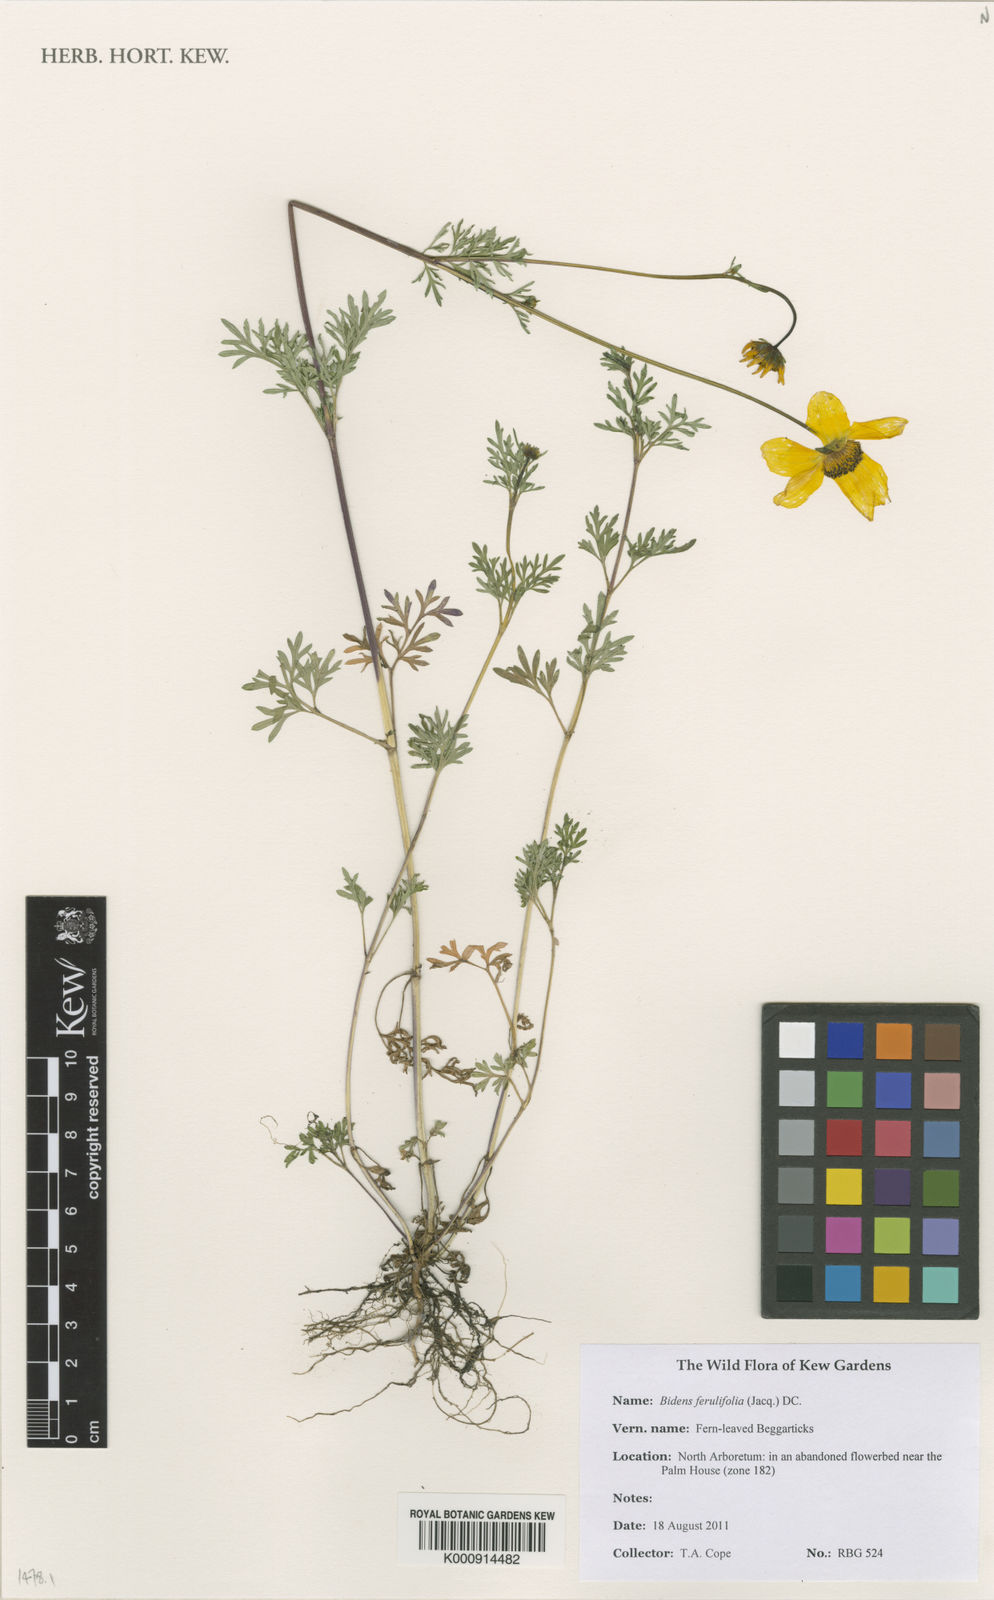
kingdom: Plantae
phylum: Tracheophyta
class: Magnoliopsida
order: Asterales
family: Asteraceae
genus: Bidens
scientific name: Bidens aurea
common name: Arizona beggar-ticks
